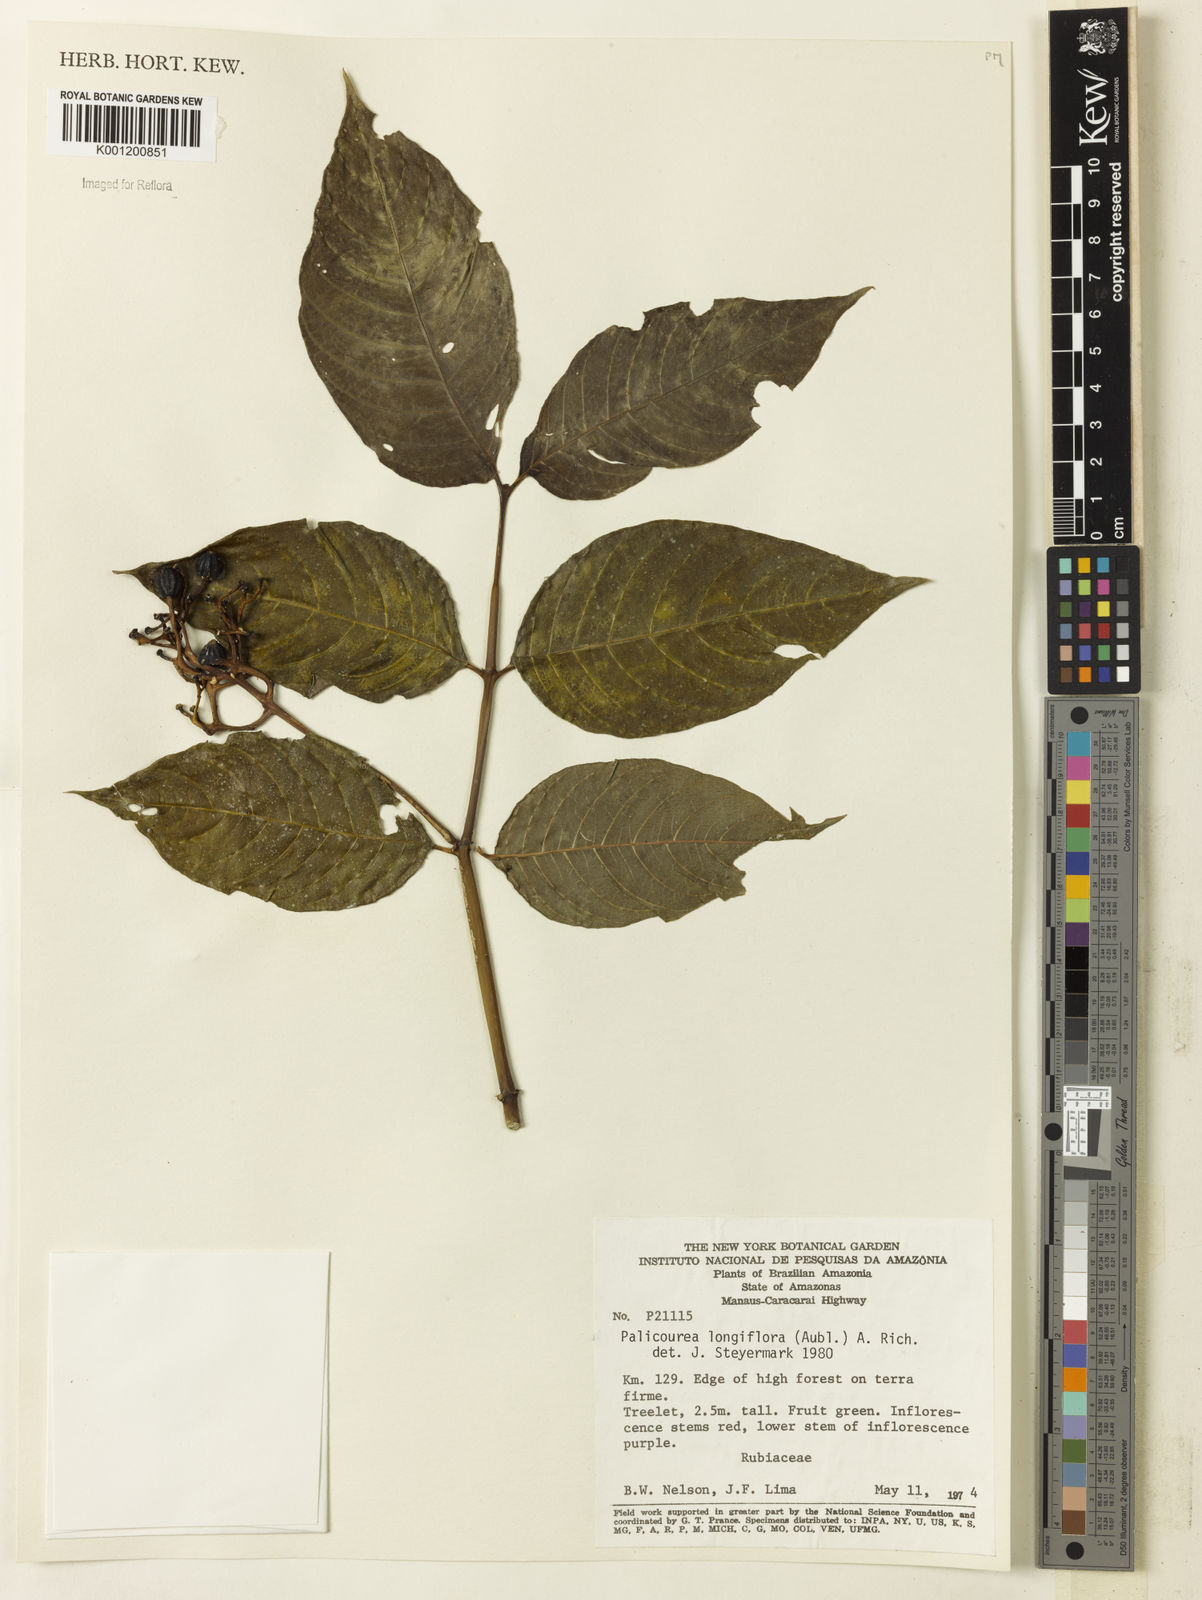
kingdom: Plantae
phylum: Tracheophyta
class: Magnoliopsida
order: Gentianales
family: Rubiaceae
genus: Palicourea
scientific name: Palicourea longiflora
